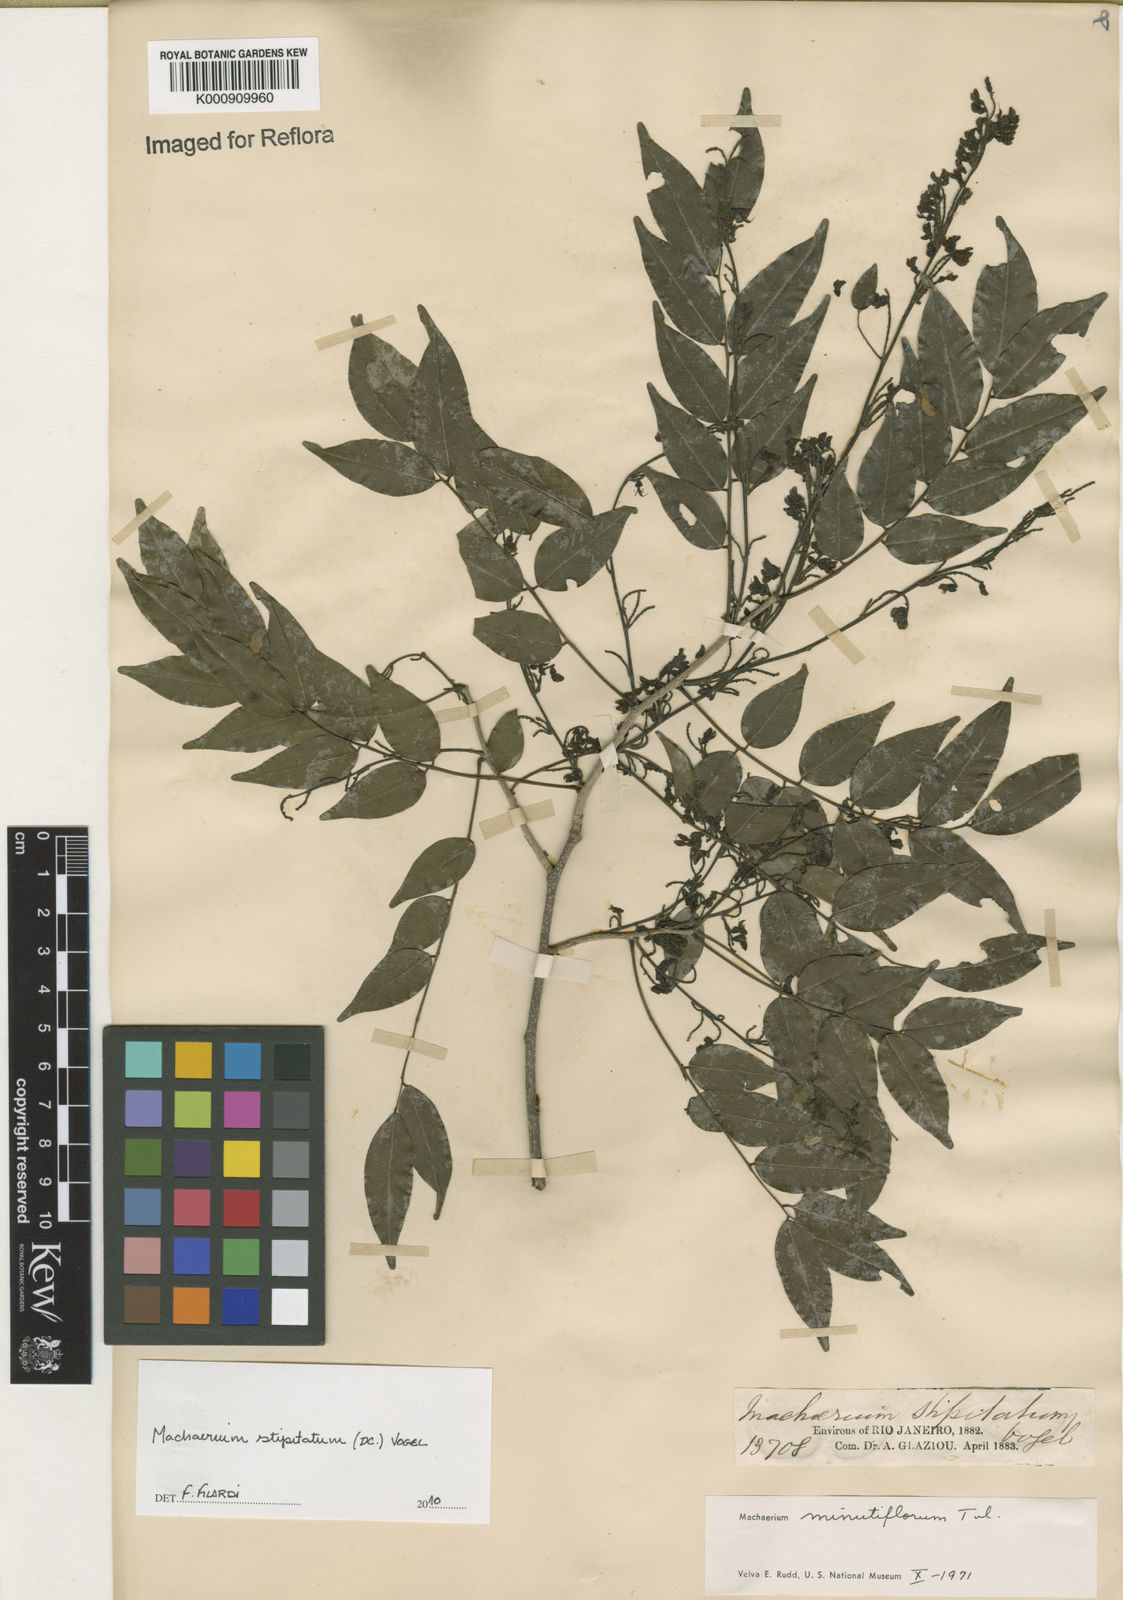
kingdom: Plantae
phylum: Tracheophyta
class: Magnoliopsida
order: Fabales
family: Fabaceae
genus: Machaerium
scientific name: Machaerium stipitatum
